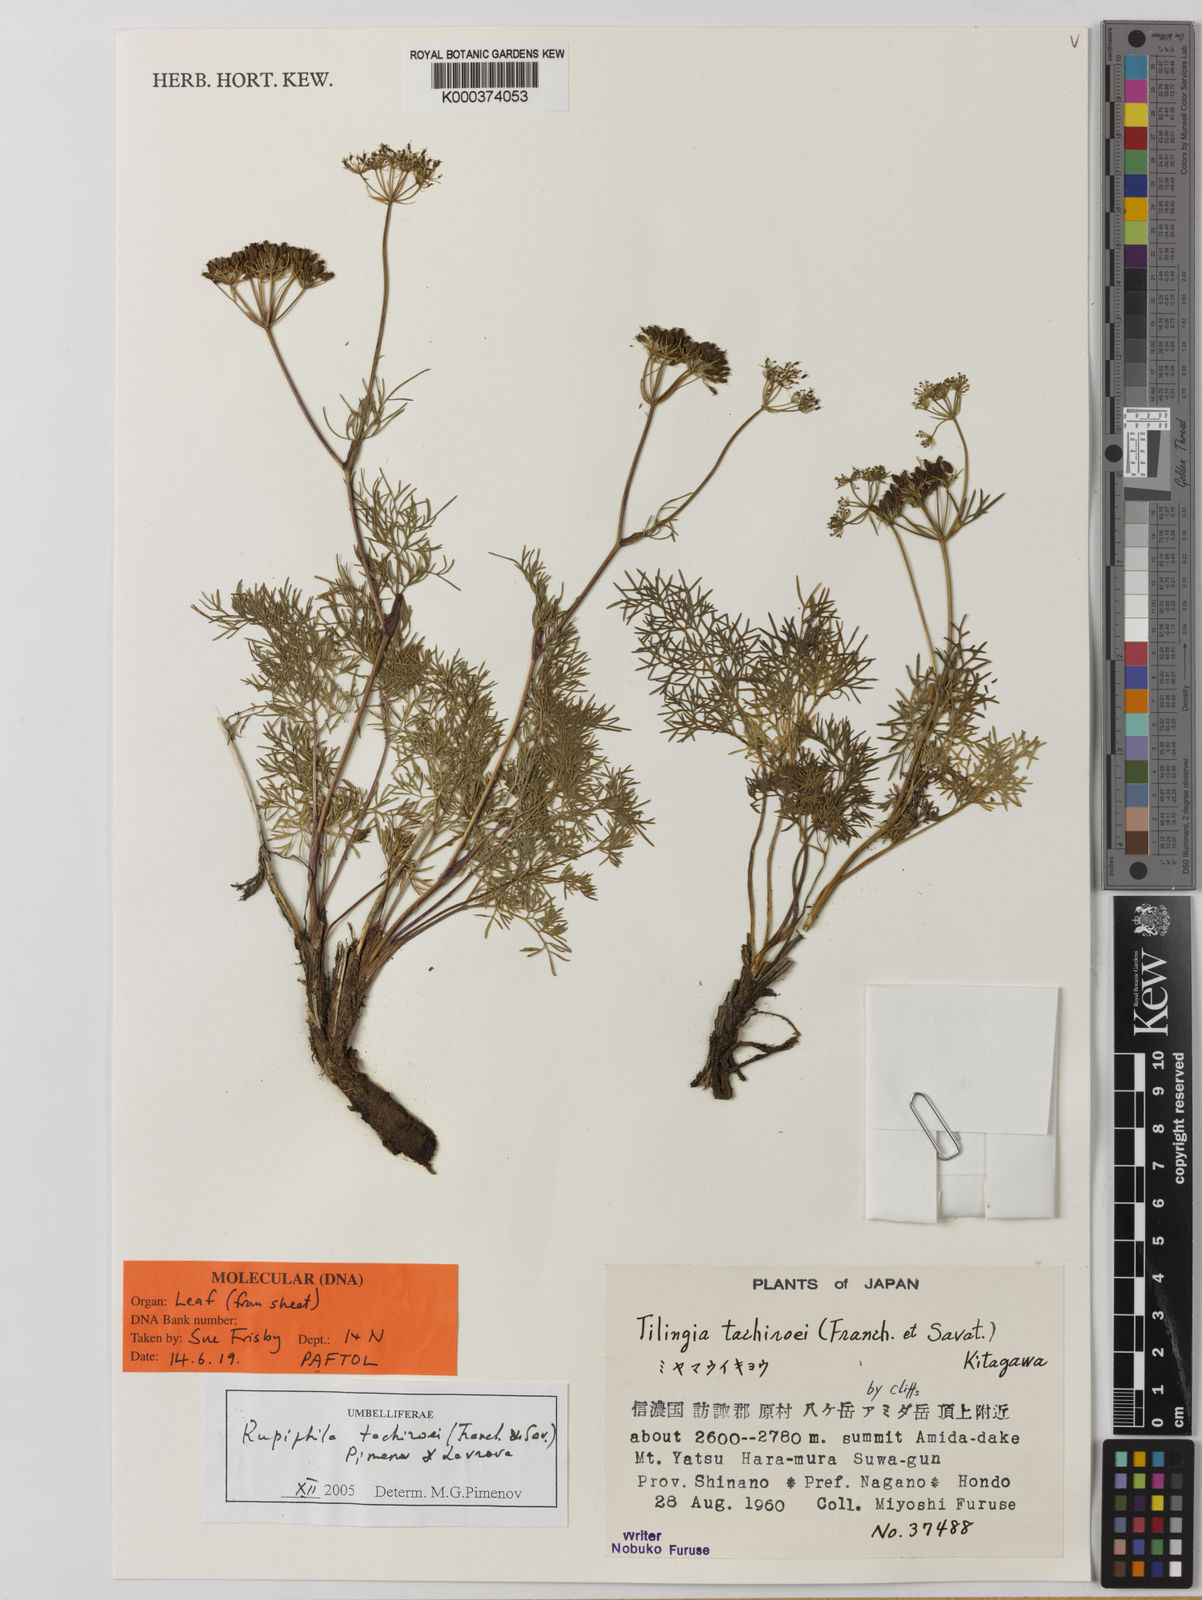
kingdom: Plantae
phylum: Tracheophyta
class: Magnoliopsida
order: Apiales
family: Apiaceae
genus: Rupiphila
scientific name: Rupiphila tachiroei
